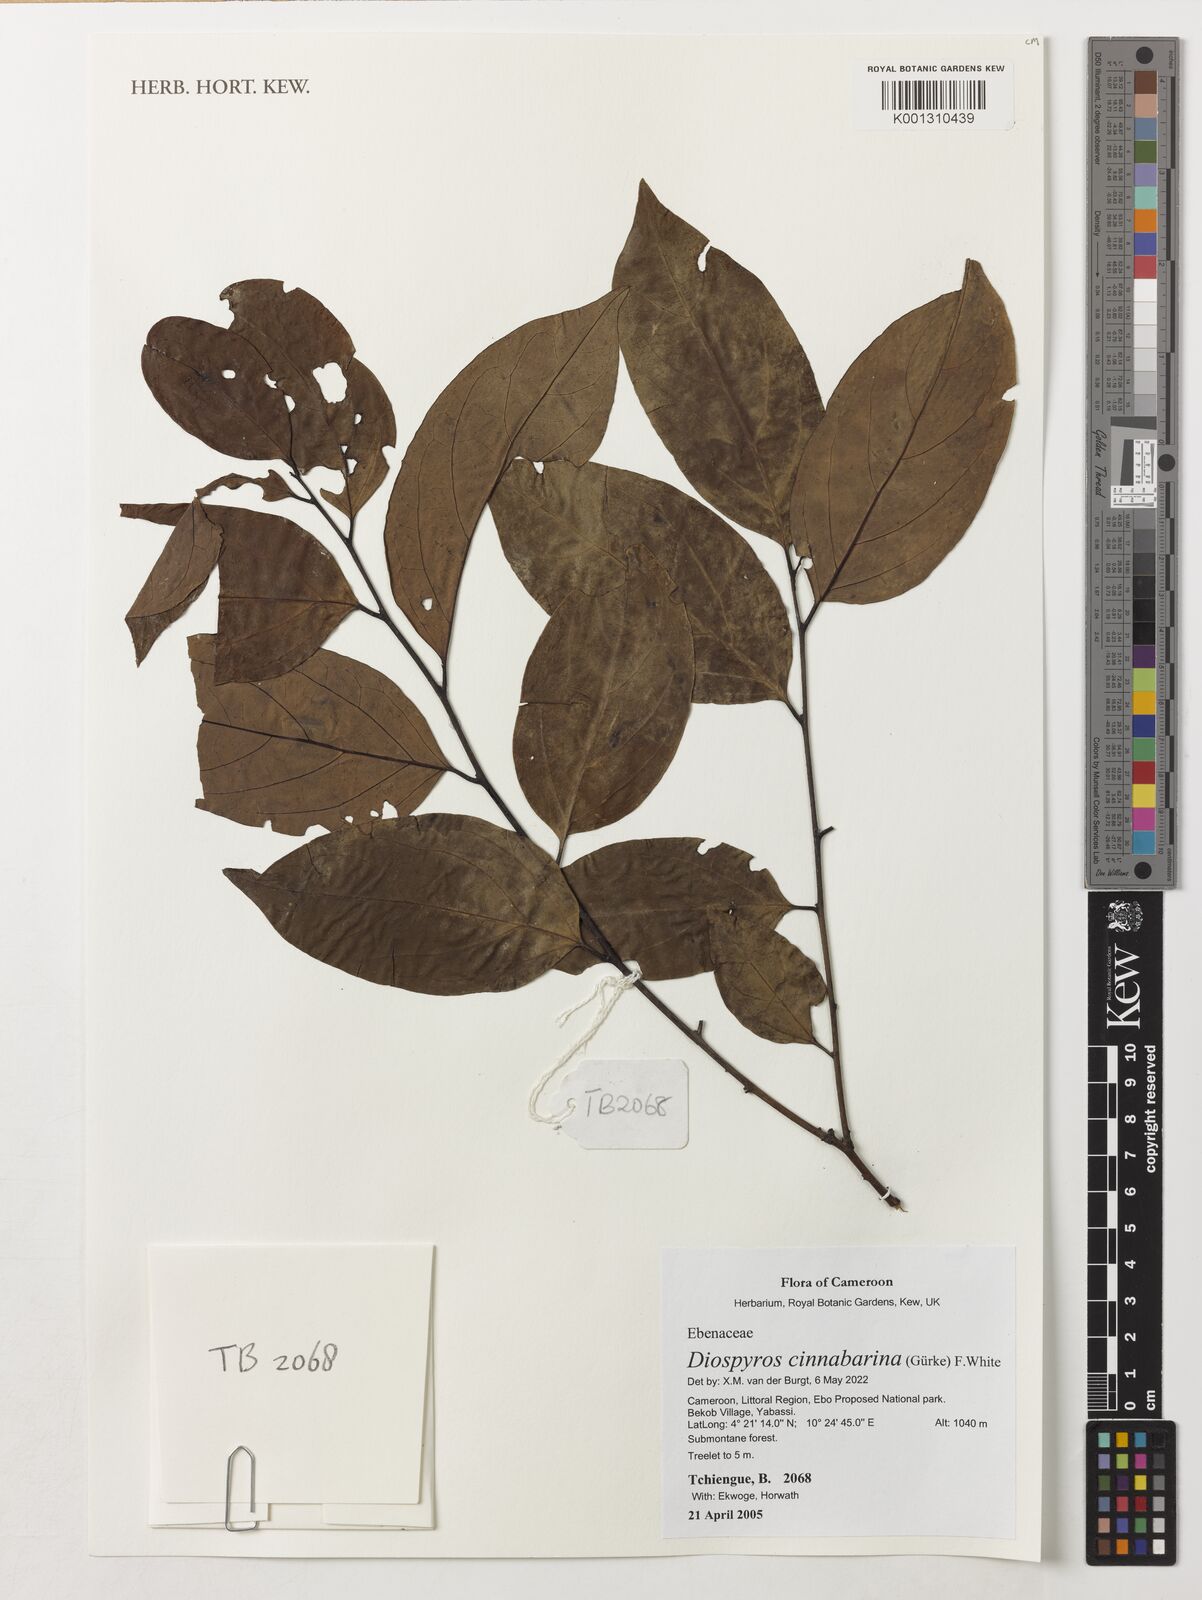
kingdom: Plantae
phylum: Tracheophyta
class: Magnoliopsida
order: Ericales
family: Ebenaceae
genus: Diospyros
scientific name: Diospyros cinnabarina
